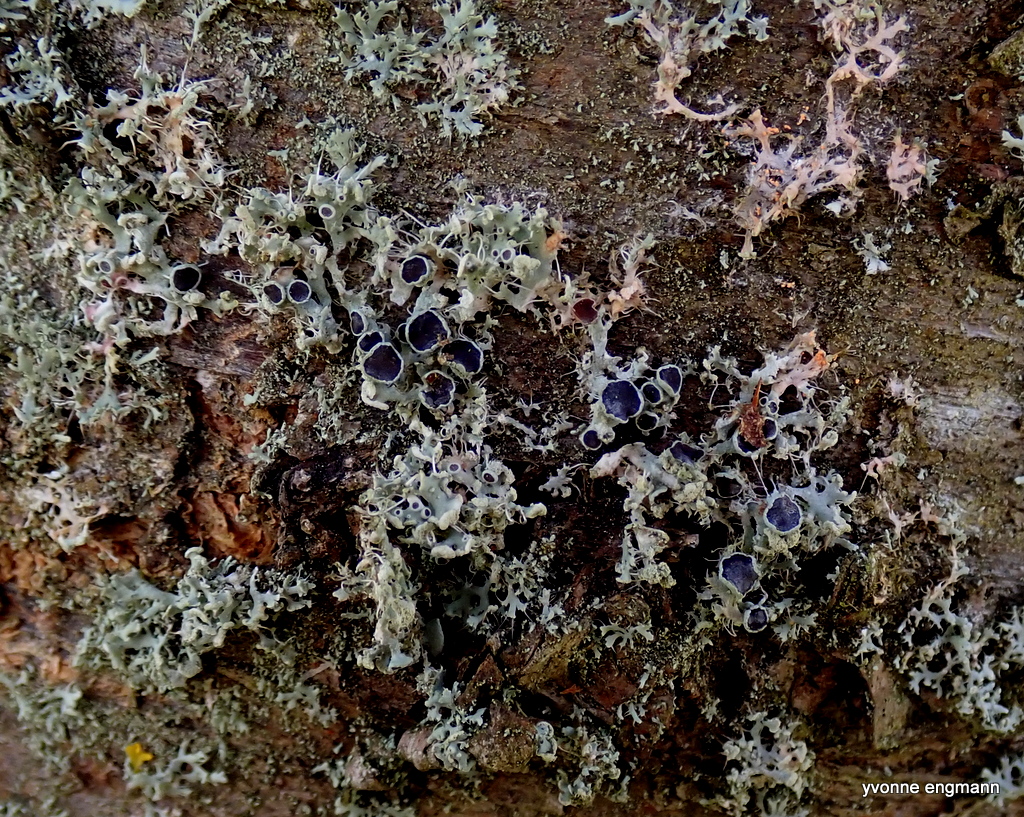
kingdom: Fungi
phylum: Ascomycota
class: Lecanoromycetes
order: Caliciales
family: Physciaceae
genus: Physcia
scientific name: Physcia tenella
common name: spæd rosetlav
